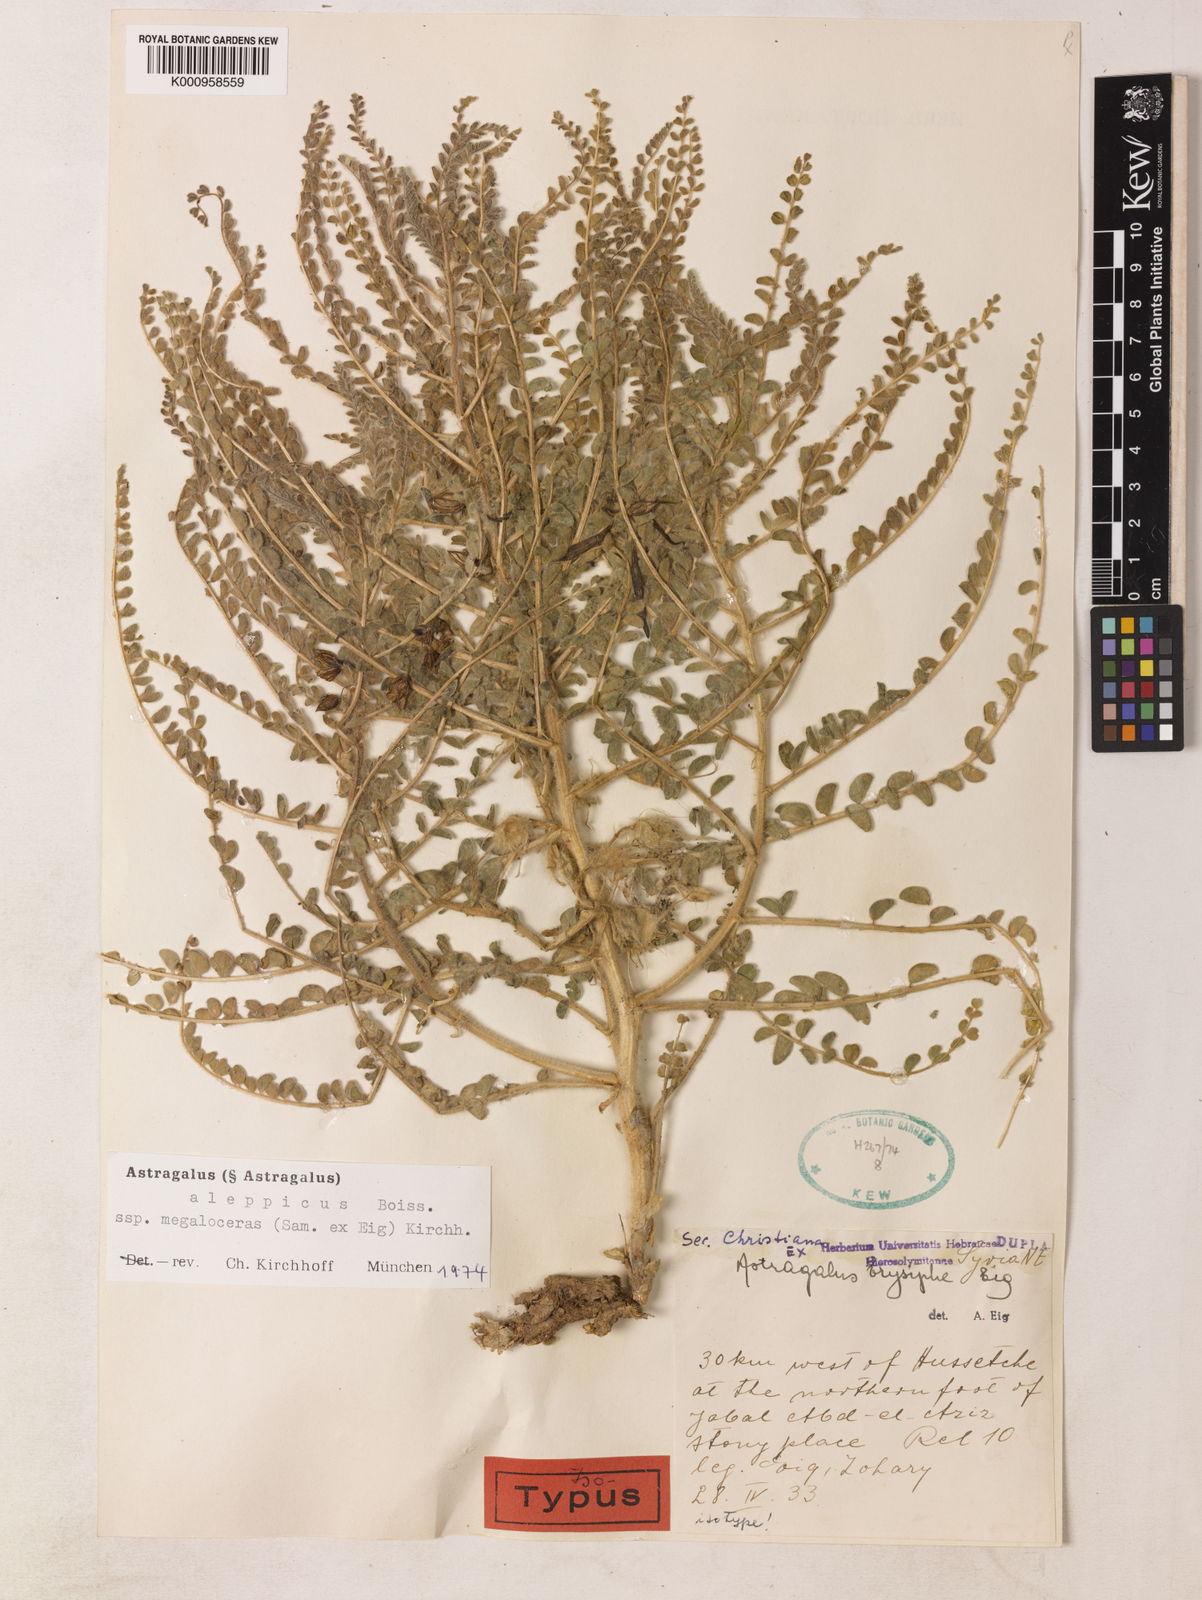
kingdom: Plantae
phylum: Tracheophyta
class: Magnoliopsida
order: Fabales
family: Fabaceae
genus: Astragalus
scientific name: Astragalus aleppicus
